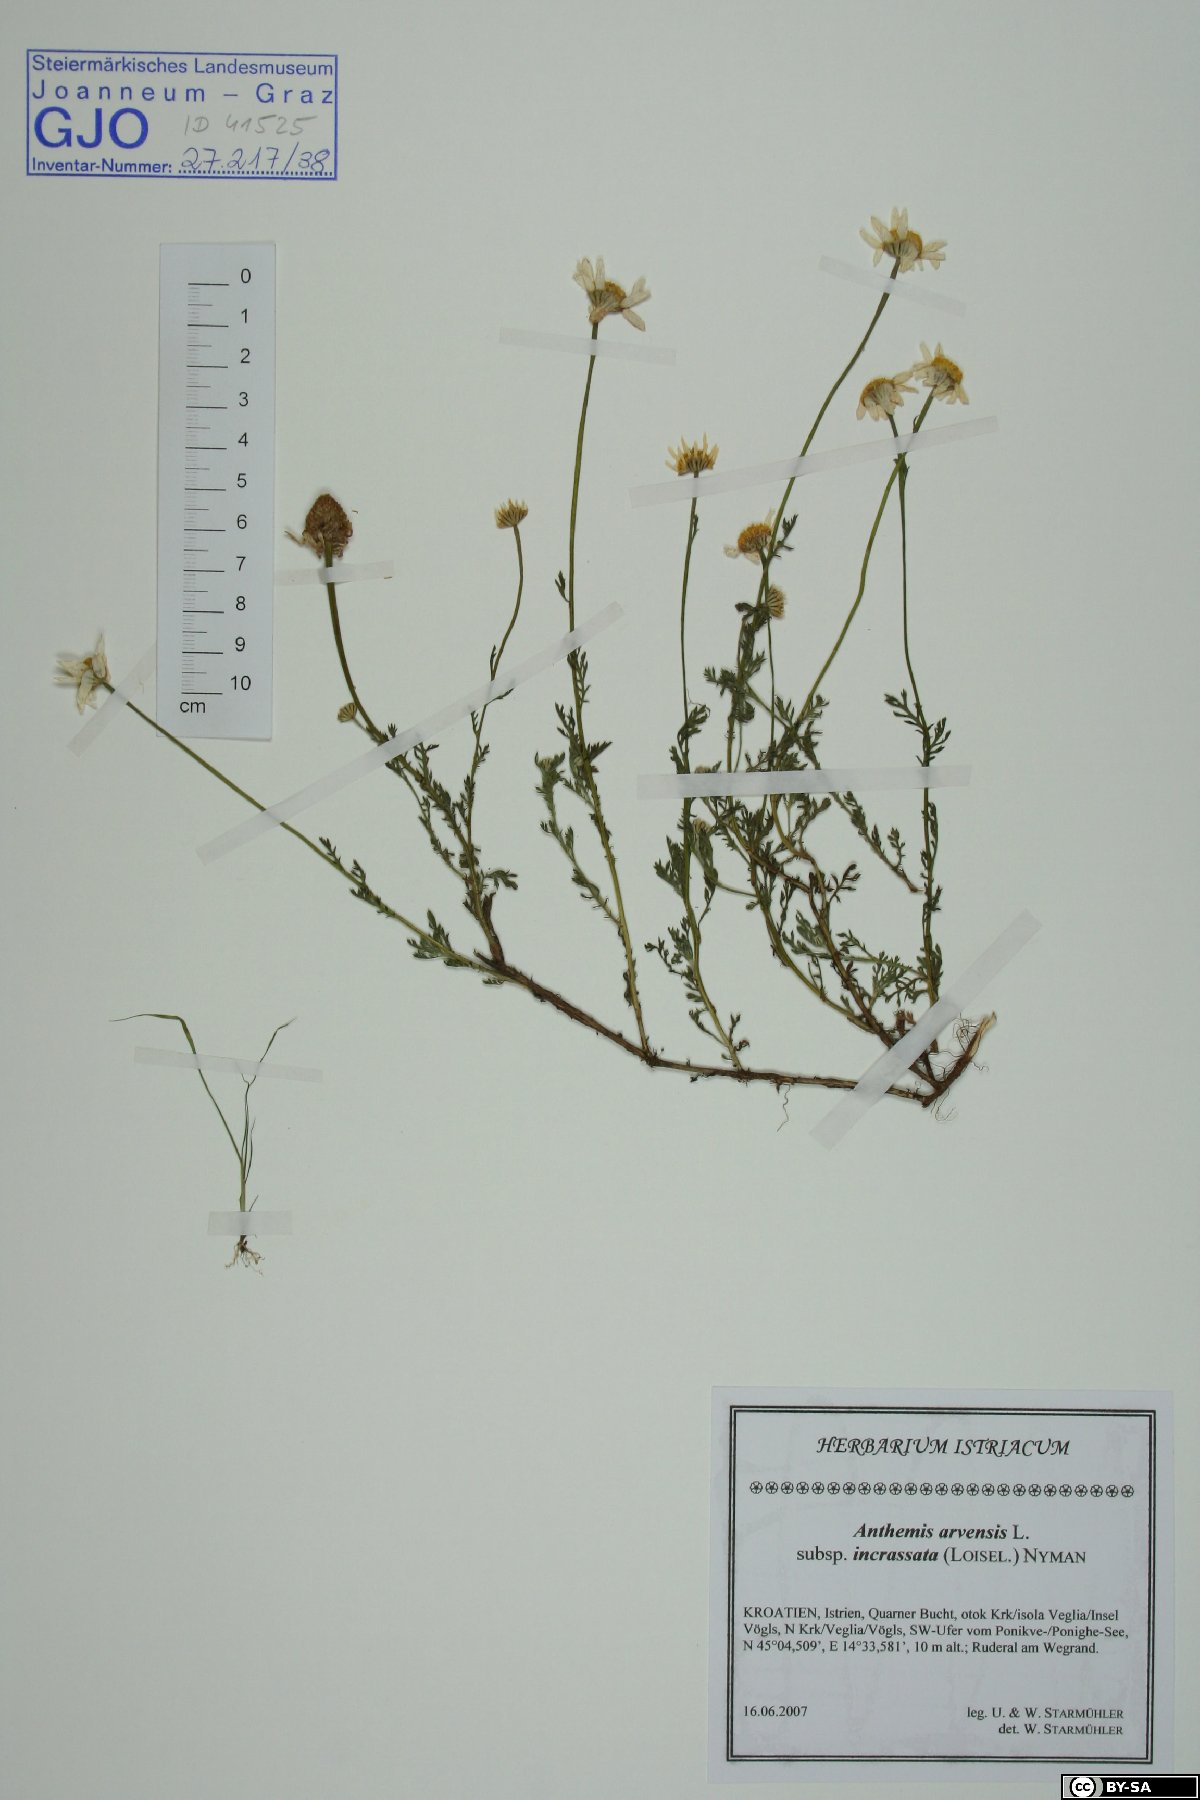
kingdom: Plantae
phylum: Tracheophyta
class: Magnoliopsida
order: Asterales
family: Asteraceae
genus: Anthemis
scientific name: Anthemis arvensis
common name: Corn chamomile
